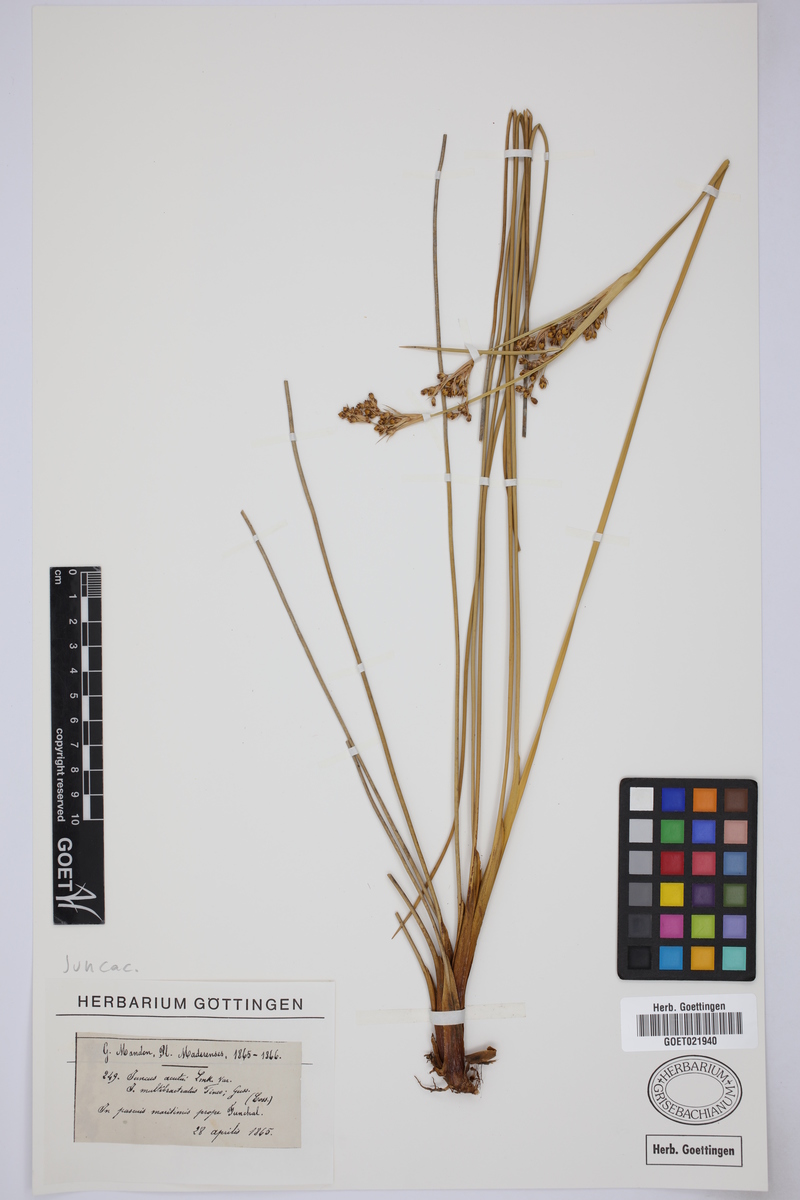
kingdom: Plantae
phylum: Tracheophyta
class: Liliopsida
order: Poales
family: Juncaceae
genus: Juncus
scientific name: Juncus acutus
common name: Sharp rush
